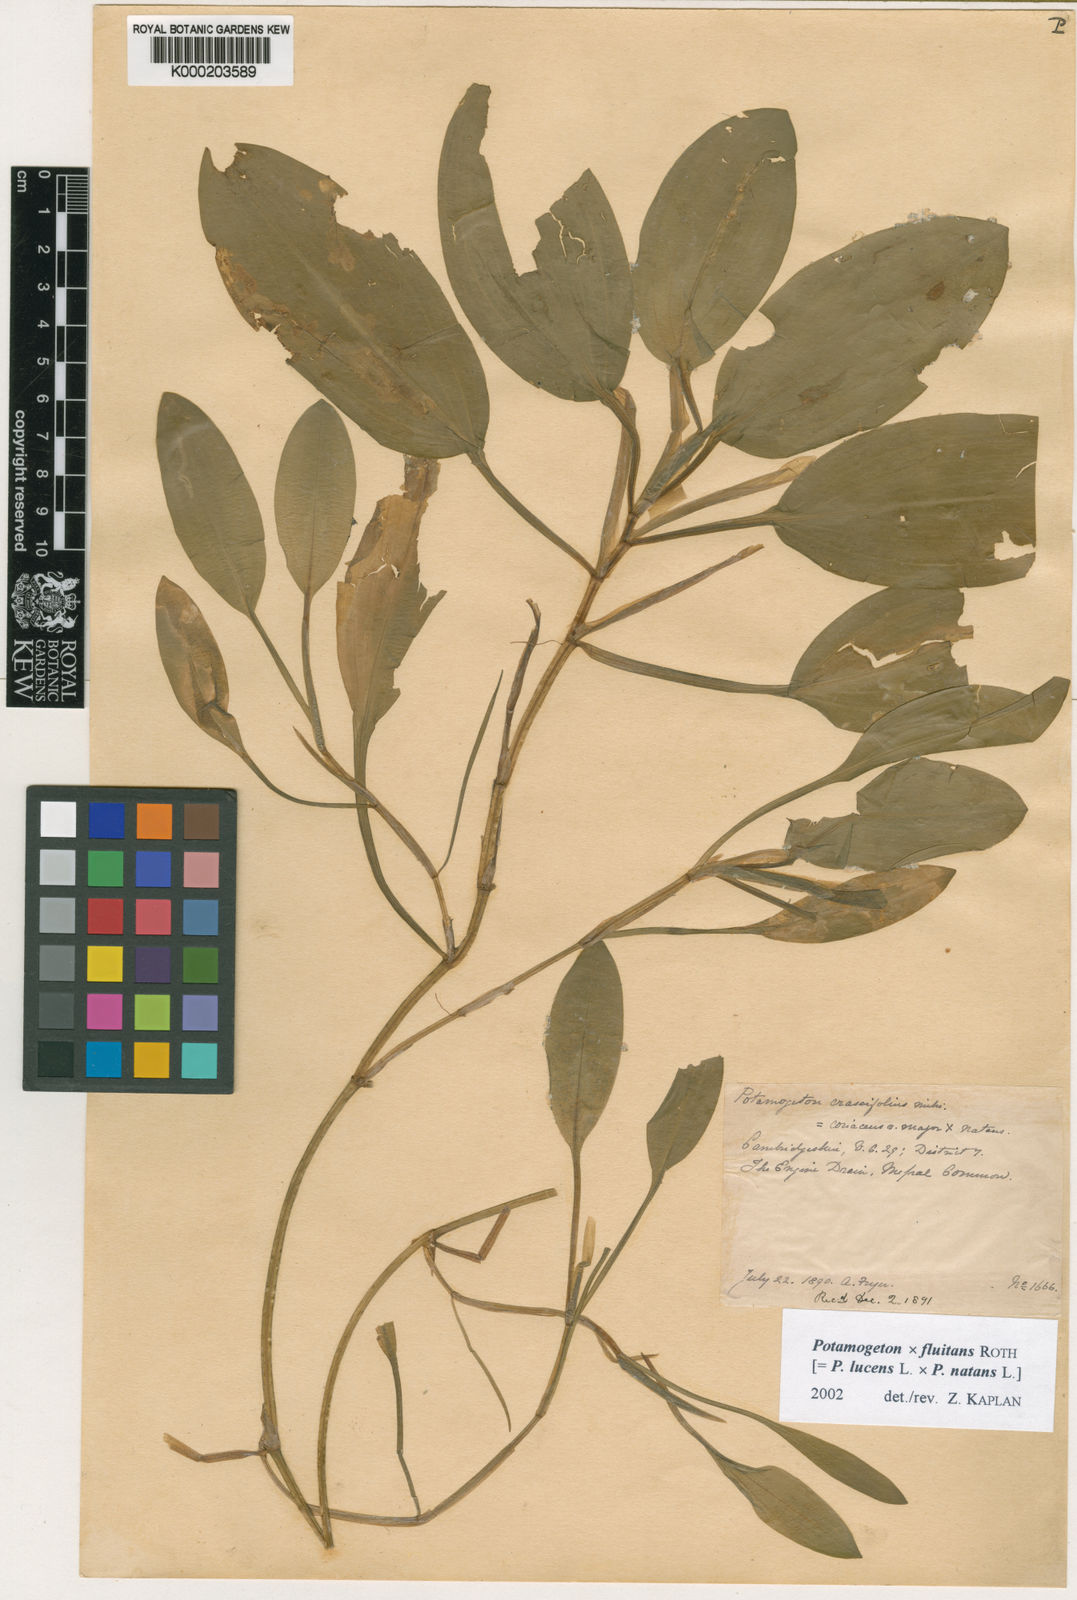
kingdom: Plantae
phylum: Tracheophyta
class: Liliopsida
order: Alismatales
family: Potamogetonaceae
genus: Potamogeton
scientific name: Potamogeton fluitans
